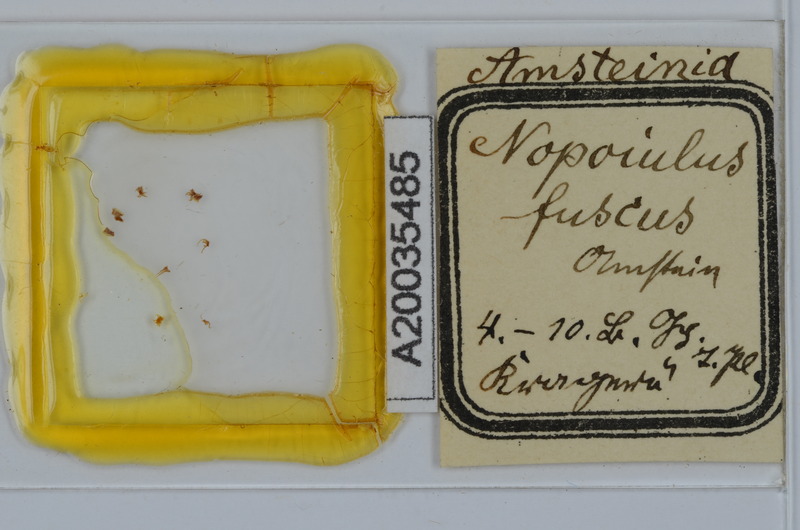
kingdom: Animalia
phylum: Arthropoda
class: Diplopoda
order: Julida
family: Blaniulidae
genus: Nopoiulus
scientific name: Nopoiulus
